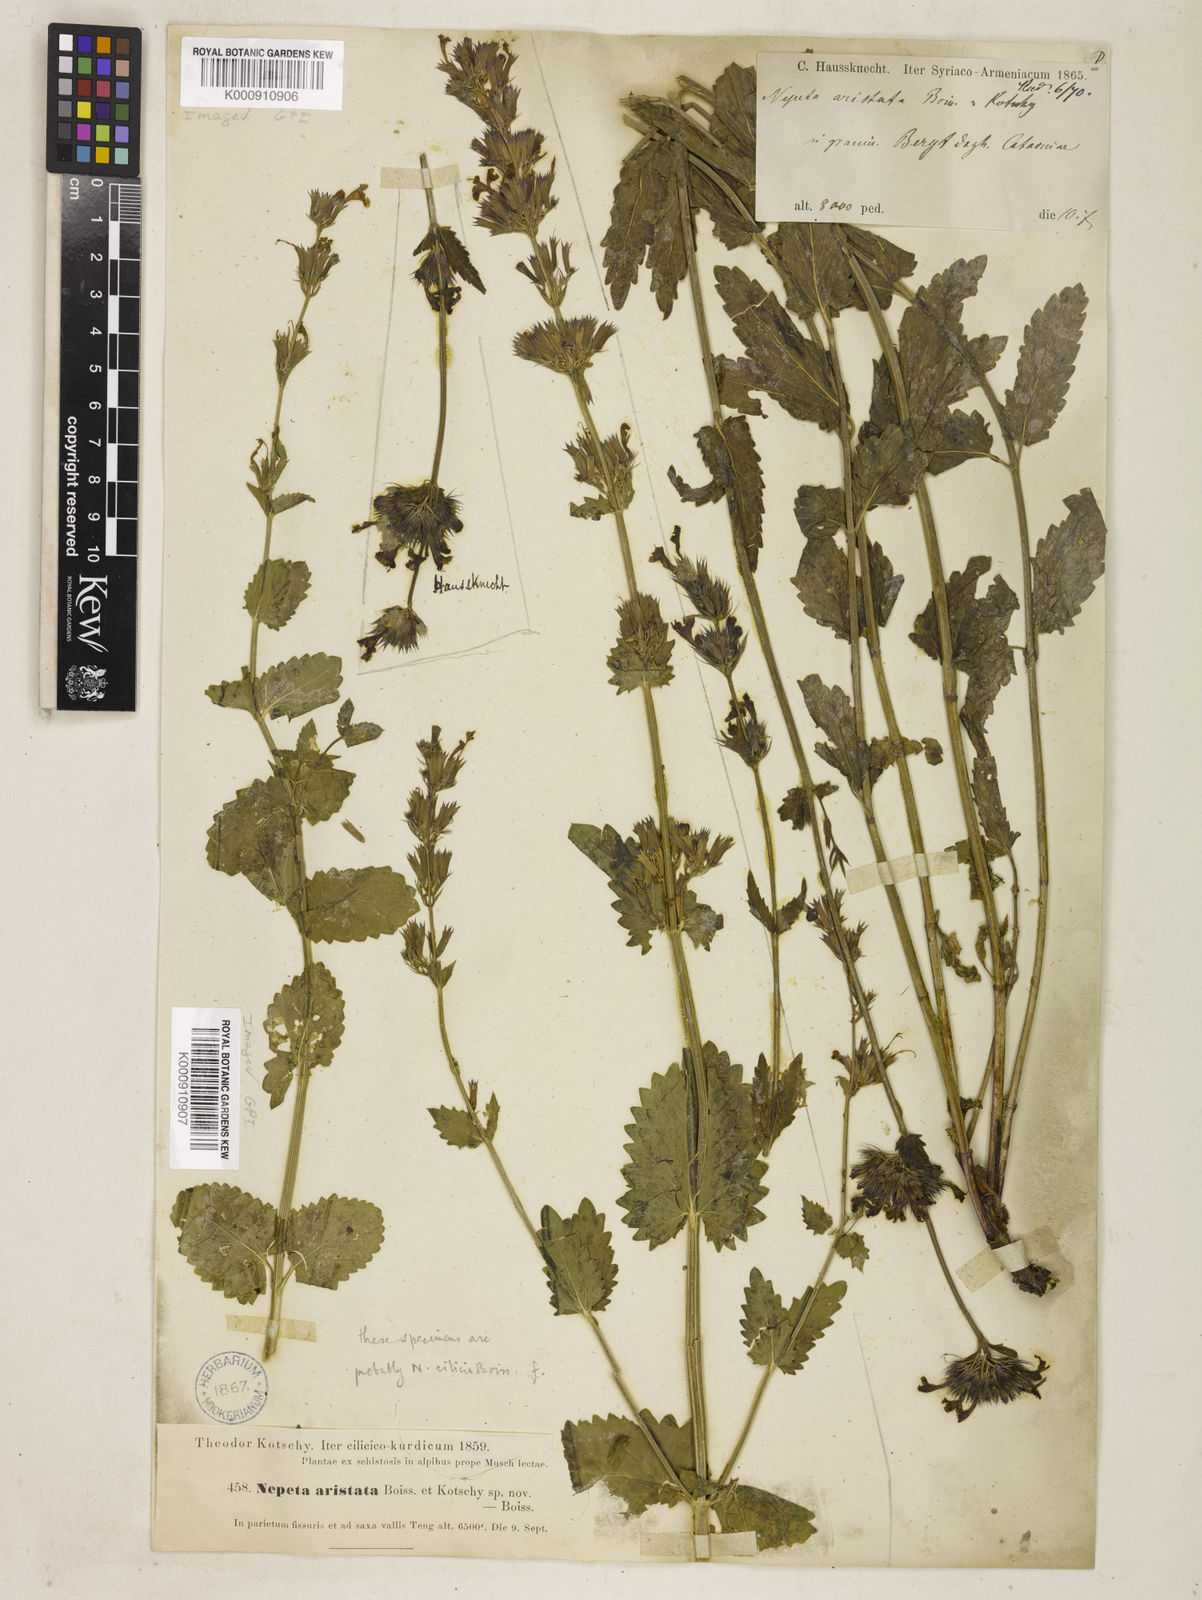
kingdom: Plantae
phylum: Tracheophyta
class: Magnoliopsida
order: Lamiales
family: Lamiaceae
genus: Nepeta
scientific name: Nepeta trichocalyx
